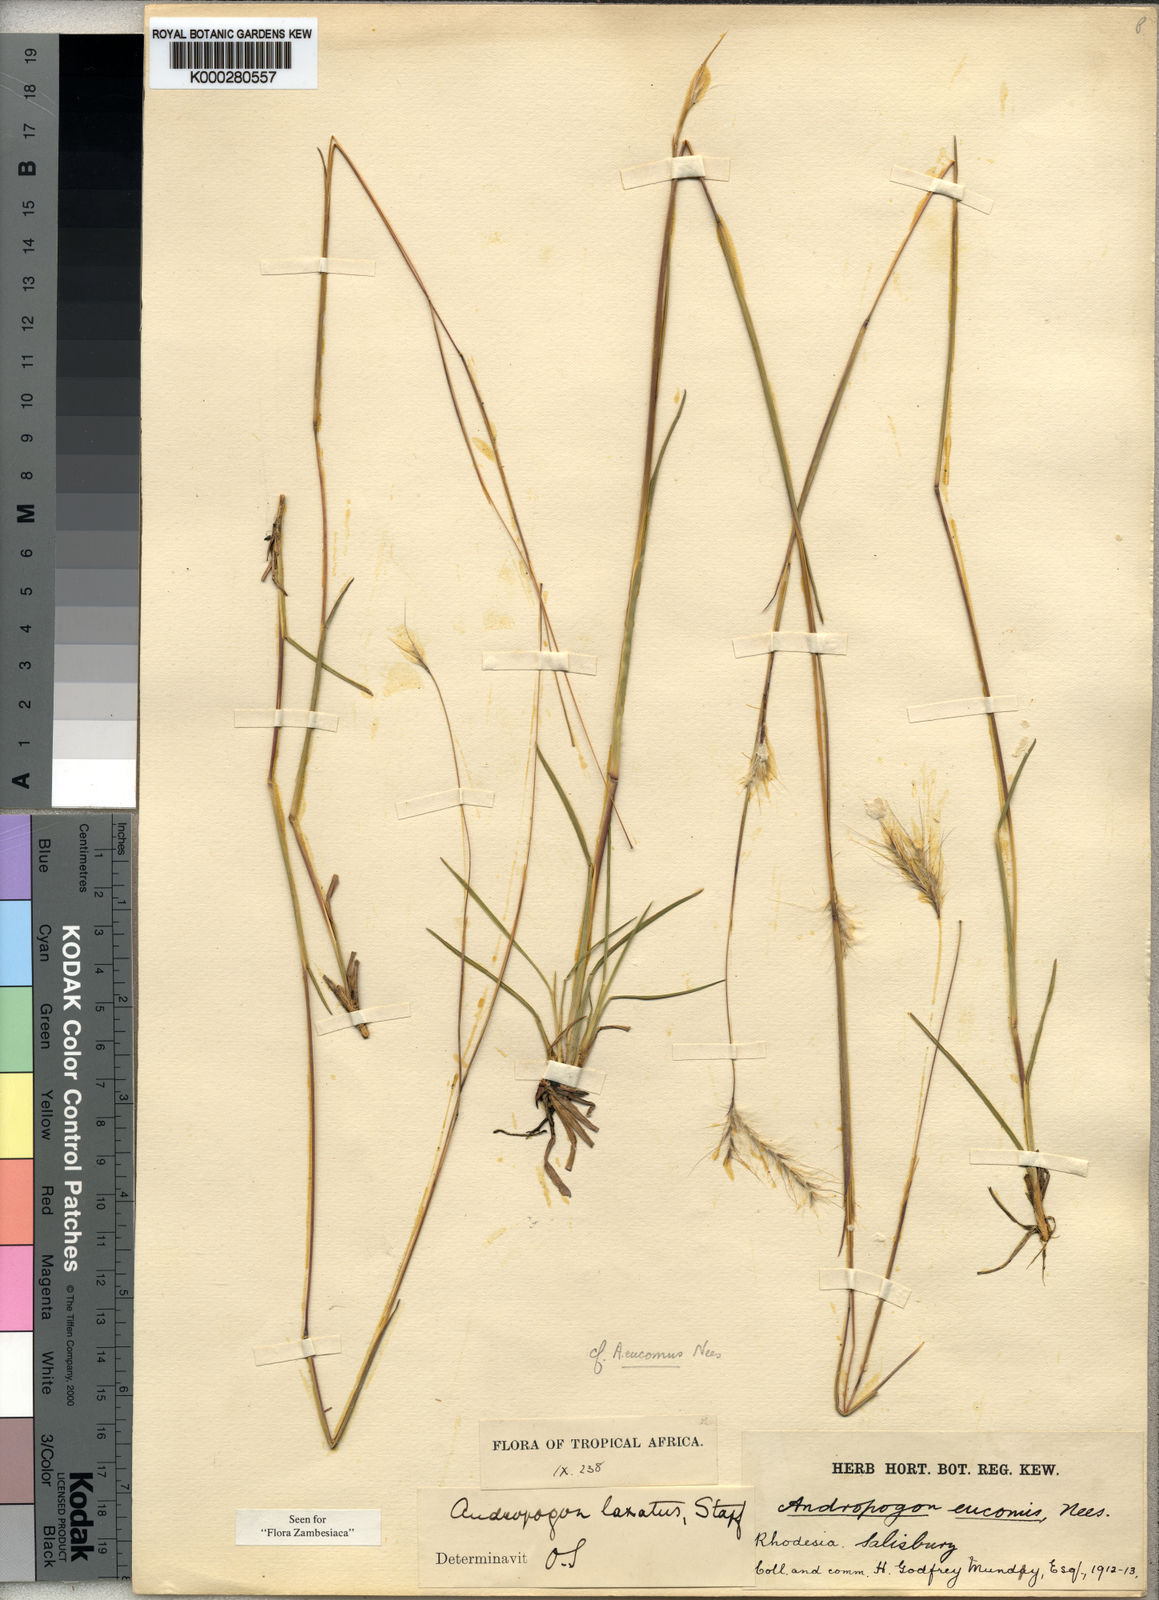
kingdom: Plantae
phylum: Tracheophyta
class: Liliopsida
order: Poales
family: Poaceae
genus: Andropogon
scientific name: Andropogon eucomus
